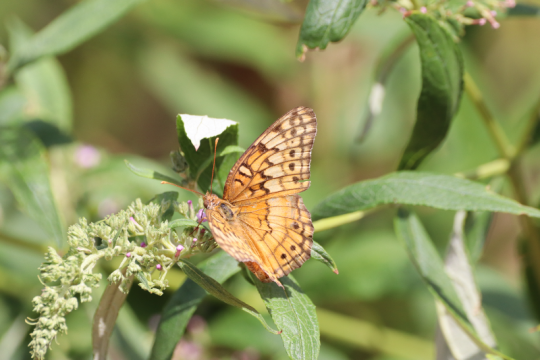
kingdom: Animalia
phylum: Arthropoda
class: Insecta
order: Lepidoptera
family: Nymphalidae
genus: Euptoieta
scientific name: Euptoieta claudia
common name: Variegated Fritillary
